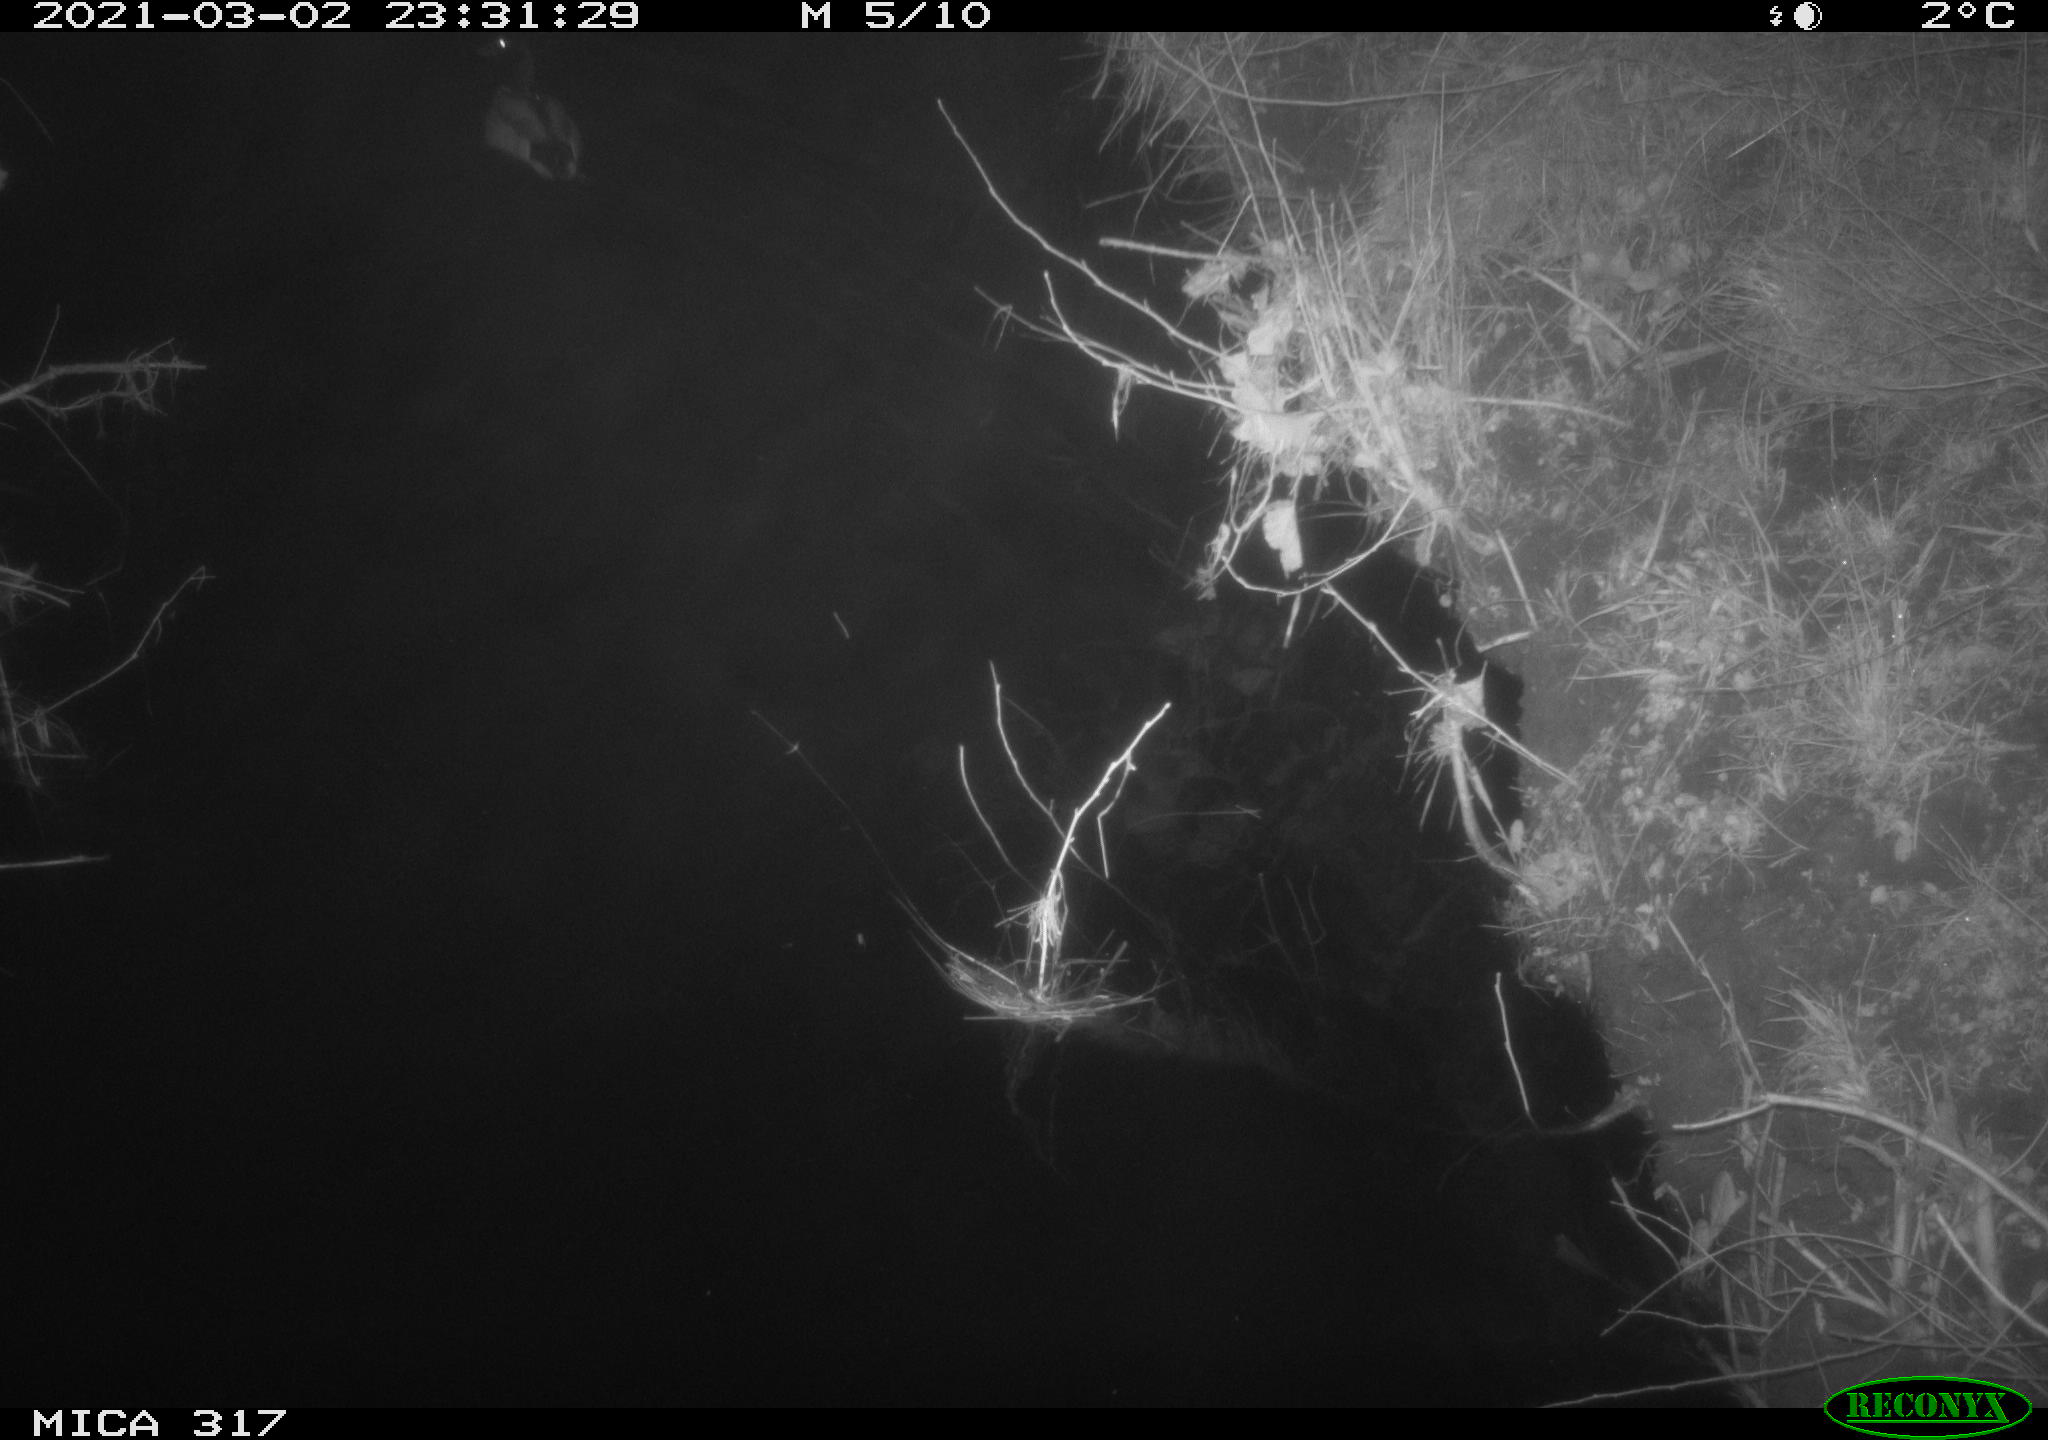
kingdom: Animalia
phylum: Chordata
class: Aves
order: Anseriformes
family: Anatidae
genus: Anas
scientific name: Anas platyrhynchos
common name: Mallard
